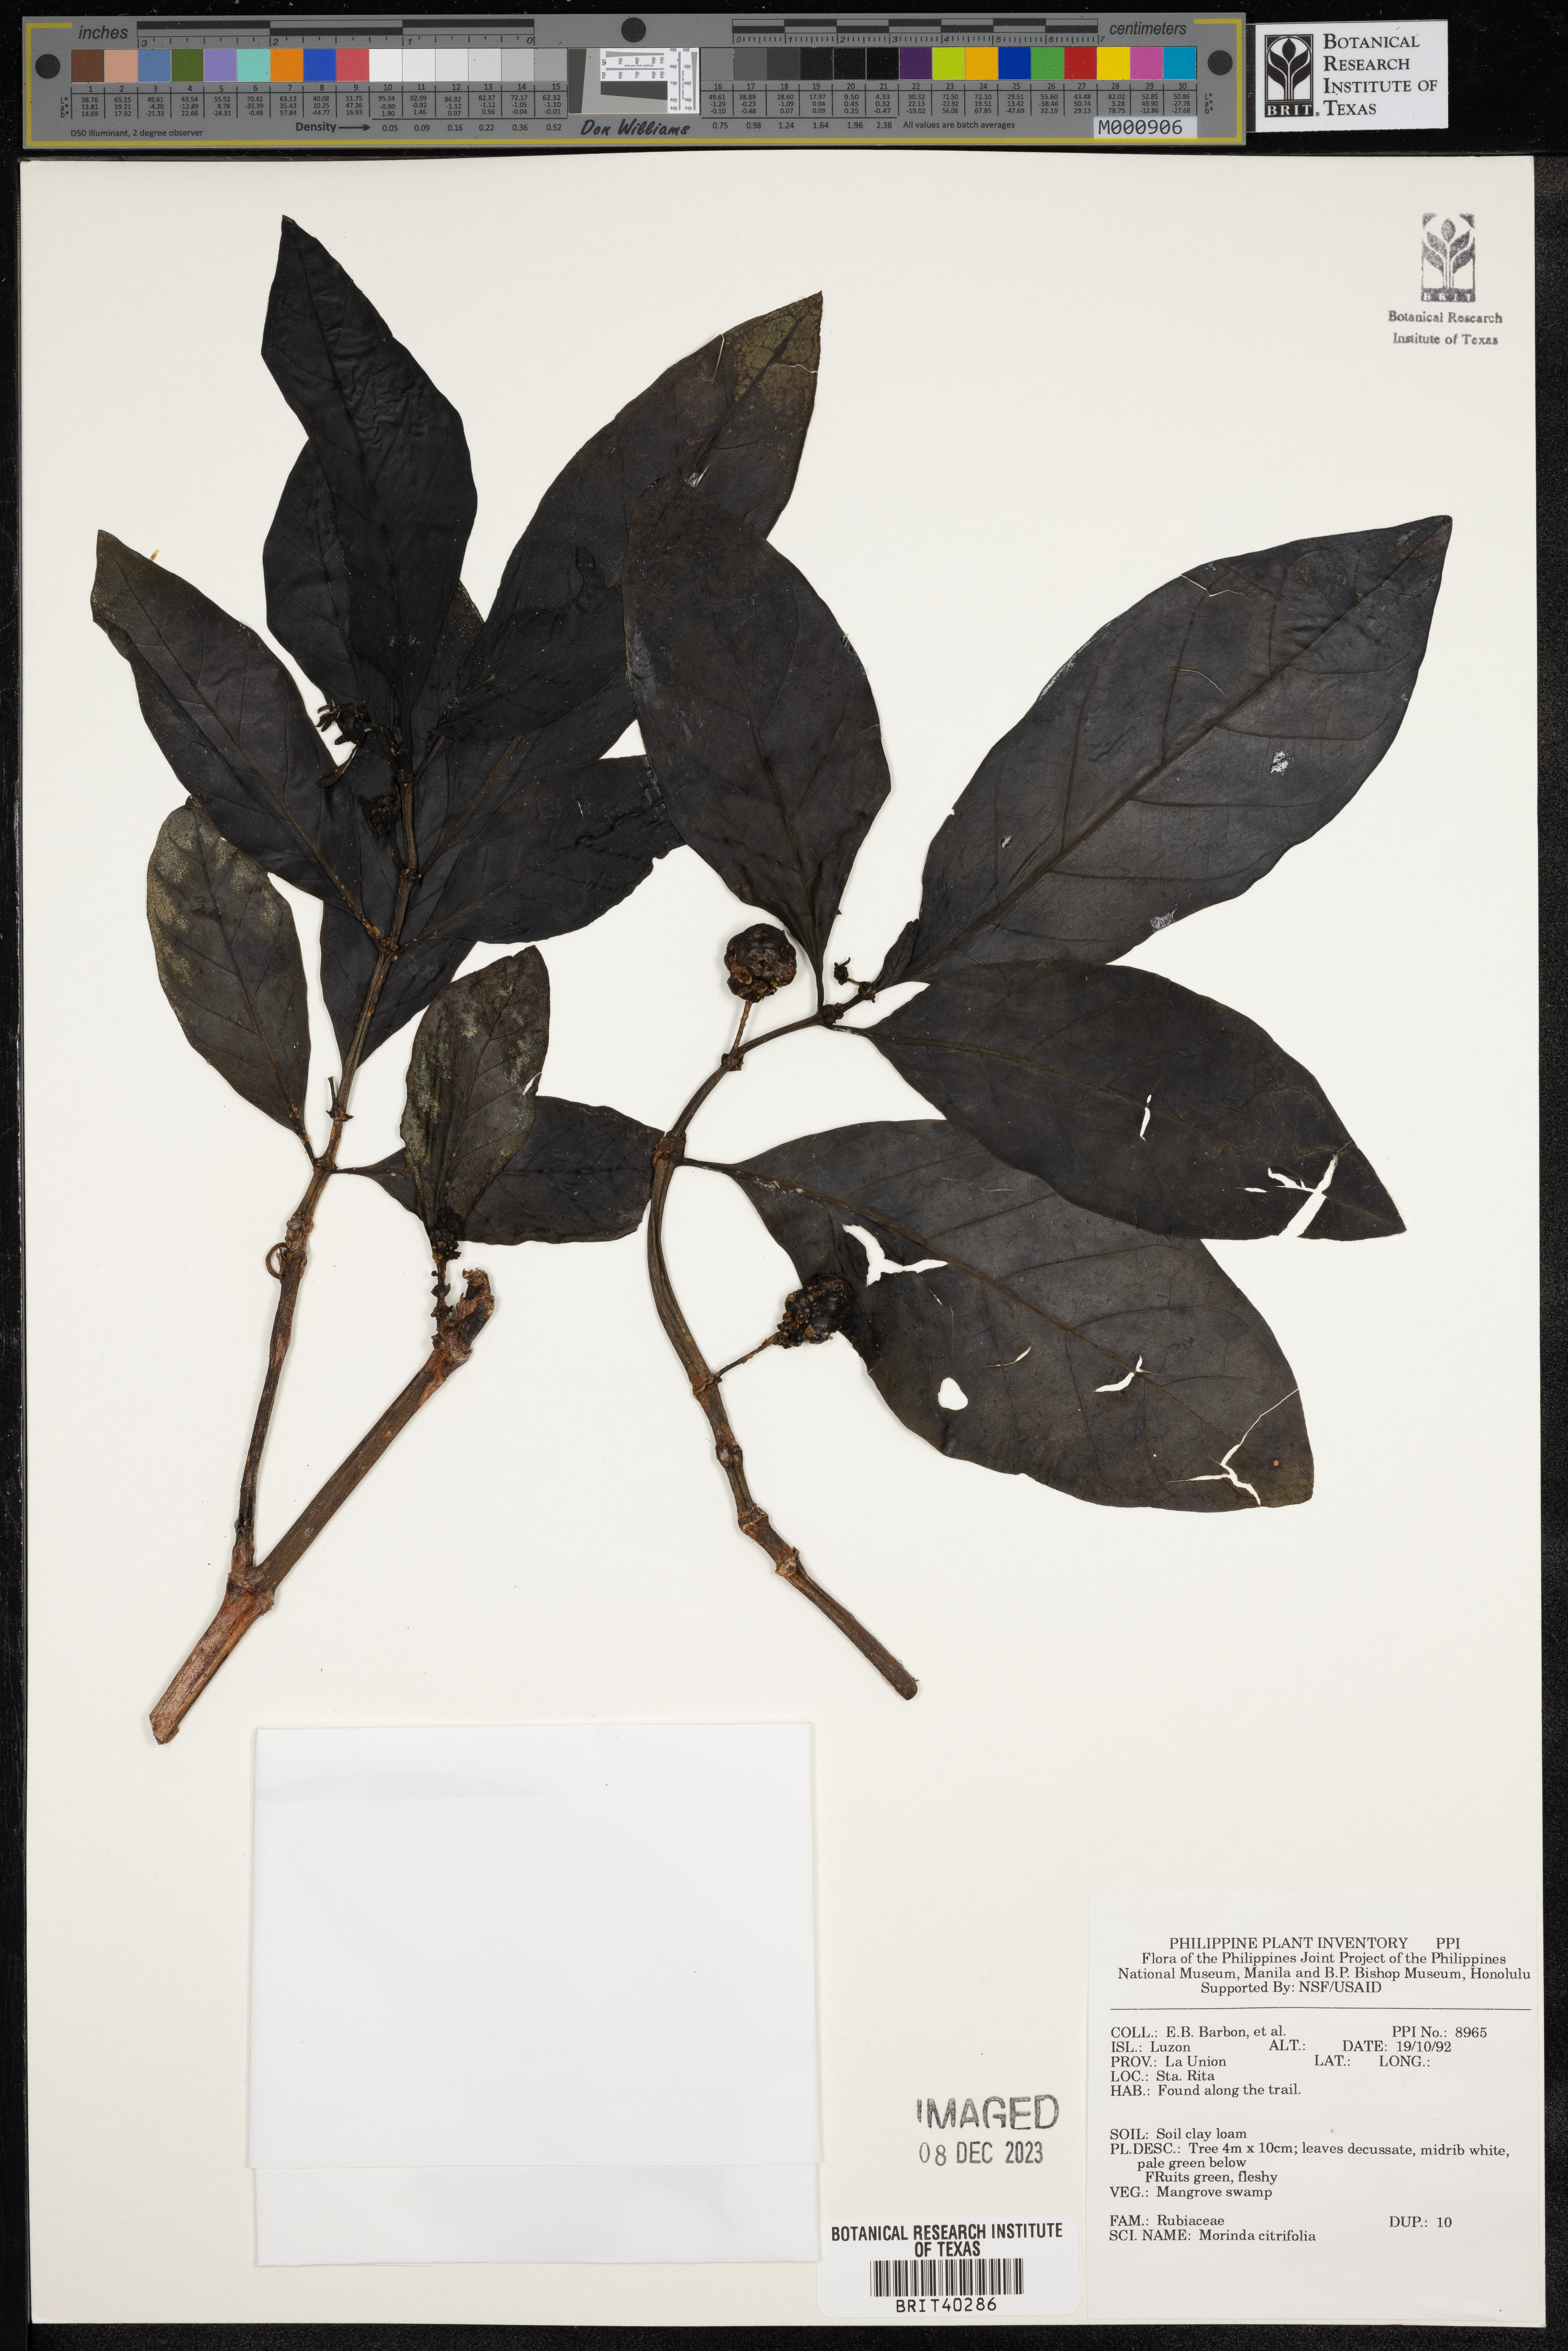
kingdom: Plantae
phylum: Tracheophyta
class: Magnoliopsida
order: Gentianales
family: Rubiaceae
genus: Morinda
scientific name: Morinda citrifolia
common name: Indian-mulberry
